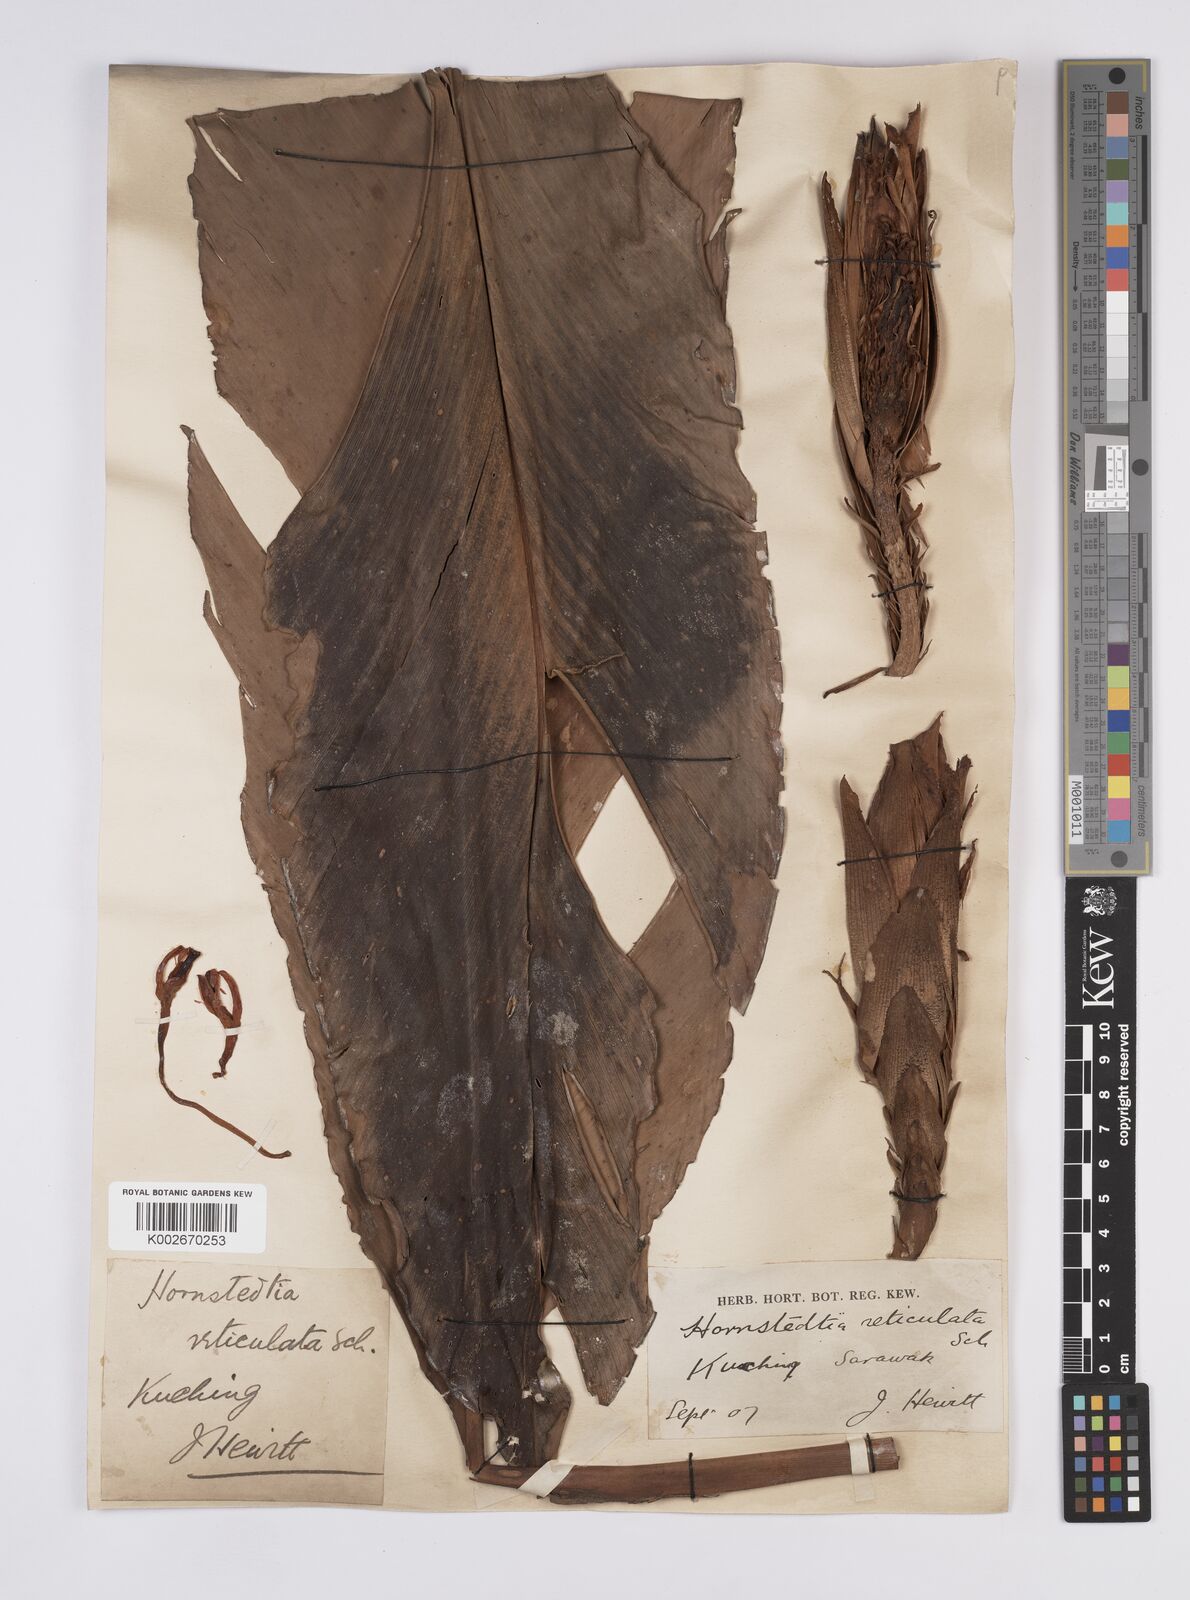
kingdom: Plantae
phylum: Tracheophyta
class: Liliopsida
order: Zingiberales
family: Zingiberaceae
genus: Hornstedtia
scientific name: Hornstedtia reticulata
